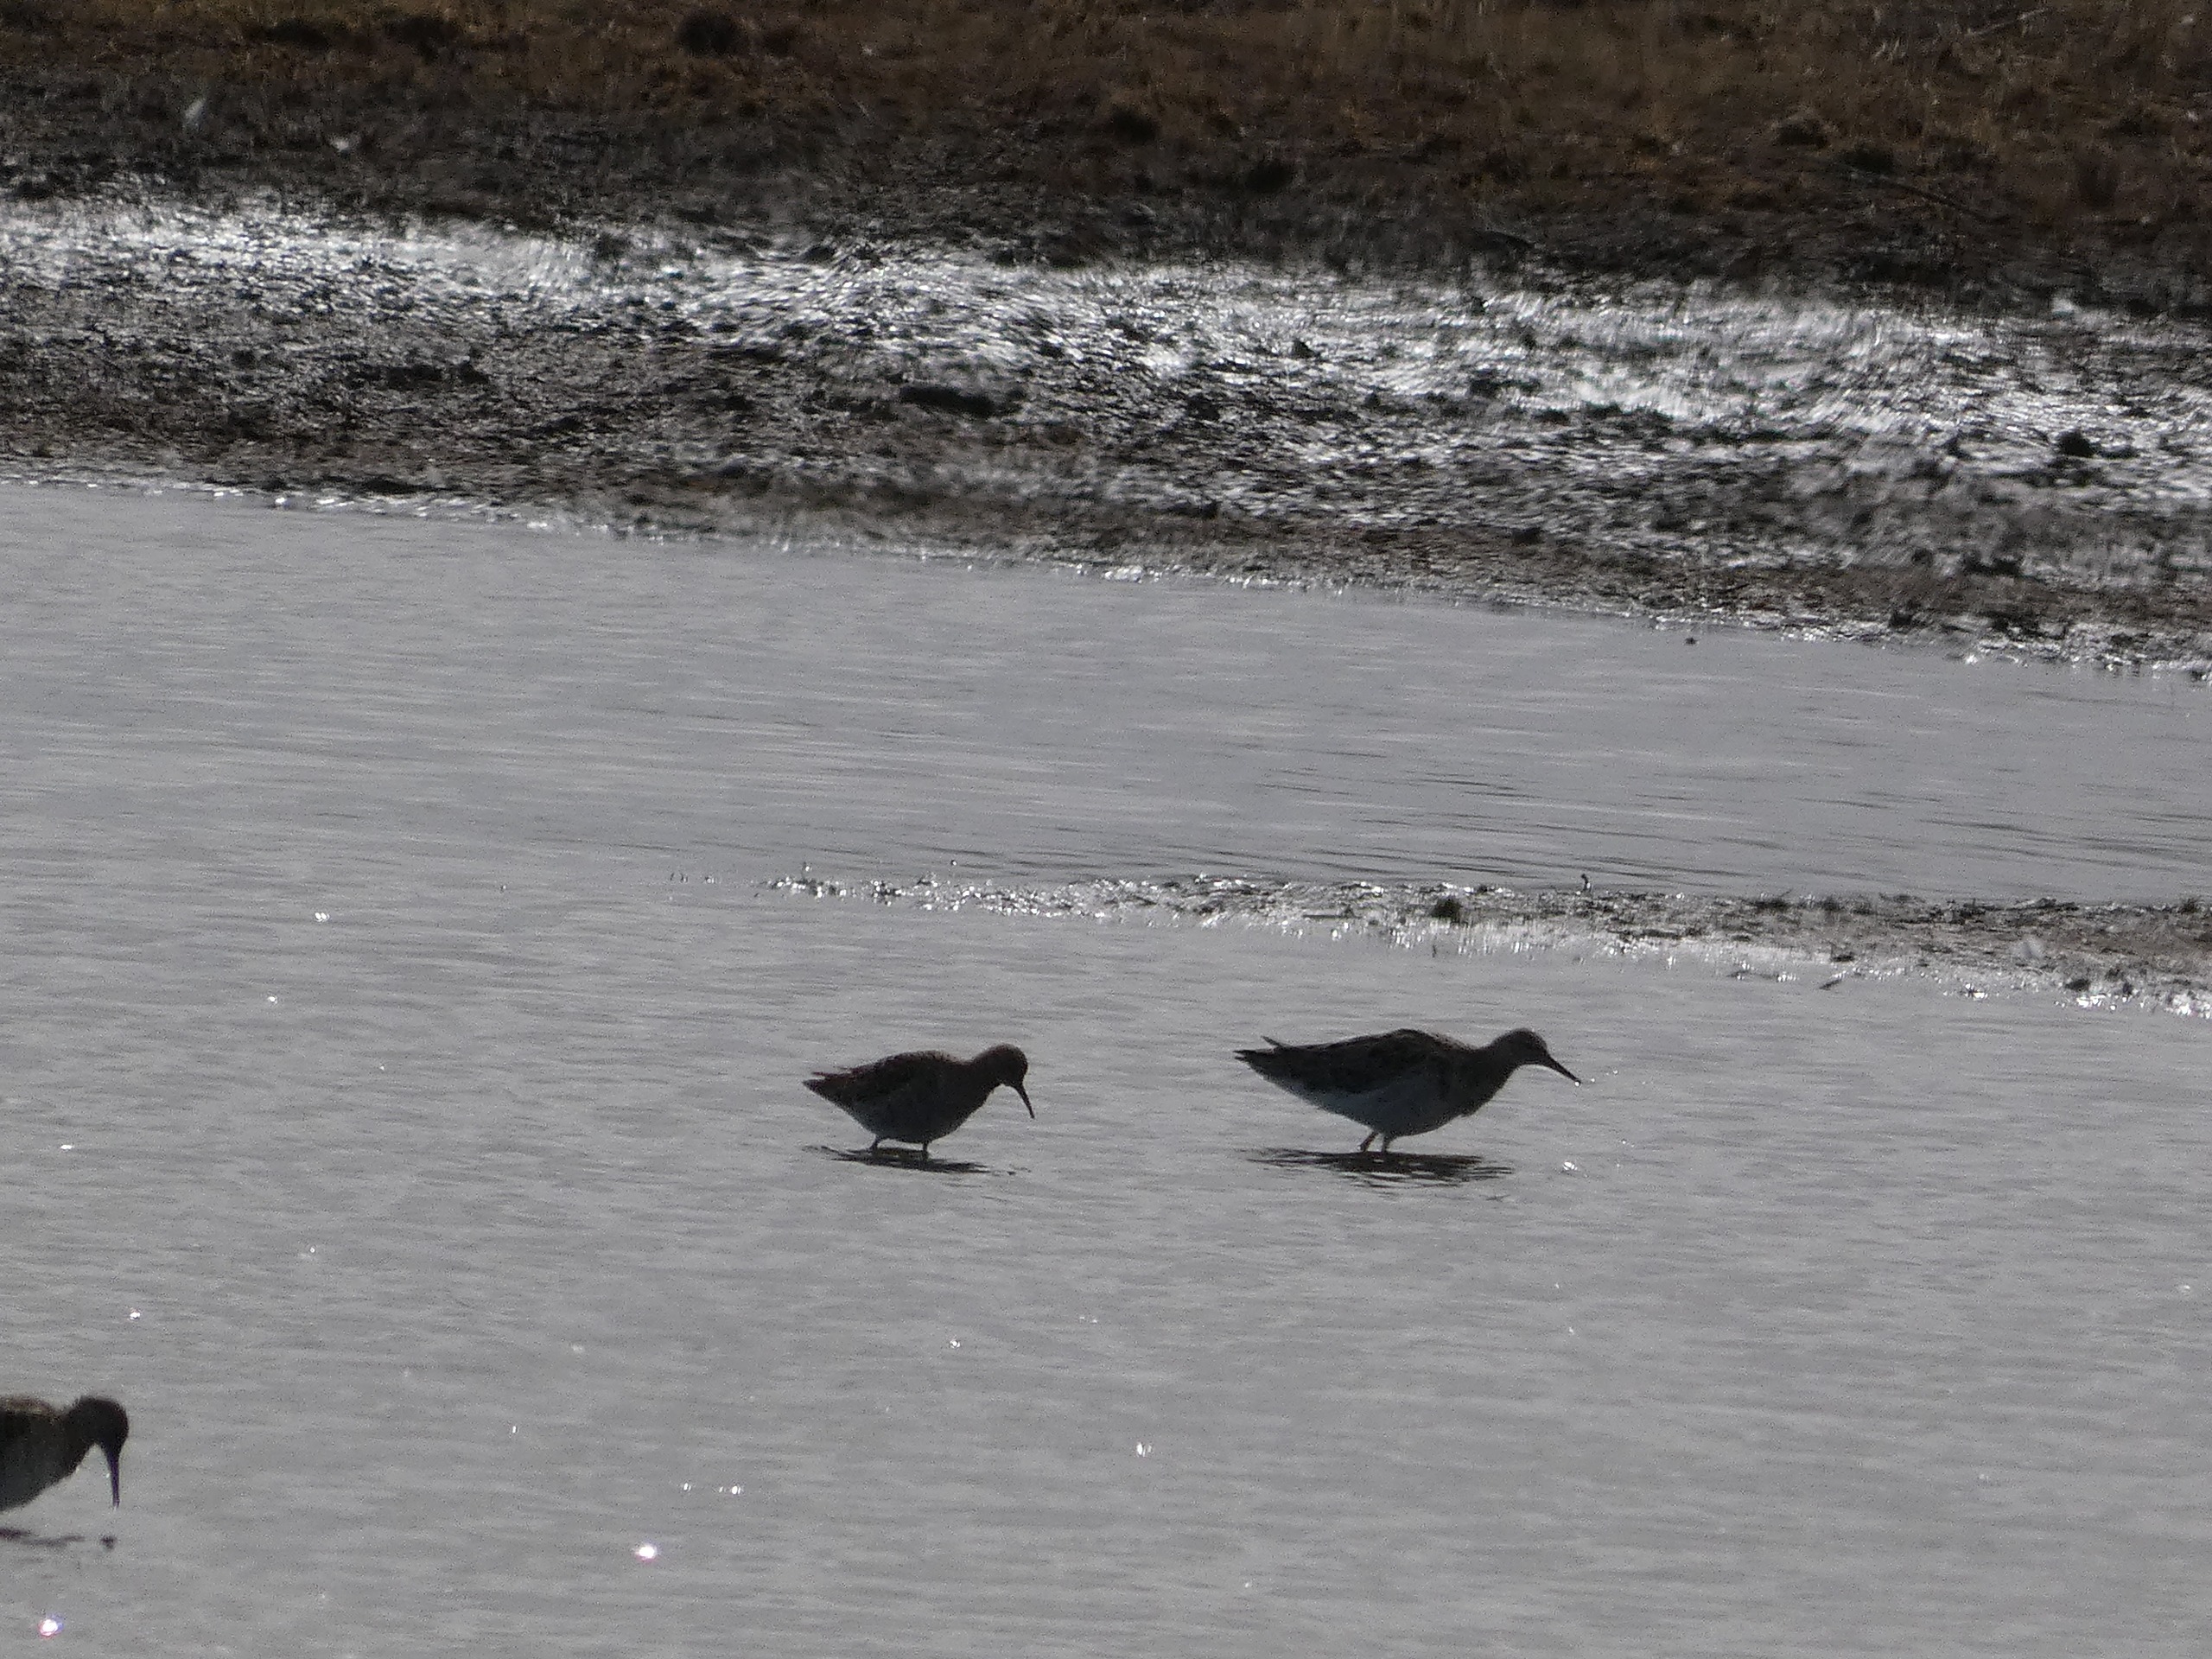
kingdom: Animalia
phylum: Chordata
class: Aves
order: Charadriiformes
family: Scolopacidae
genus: Calidris
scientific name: Calidris pugnax
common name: Brushane
